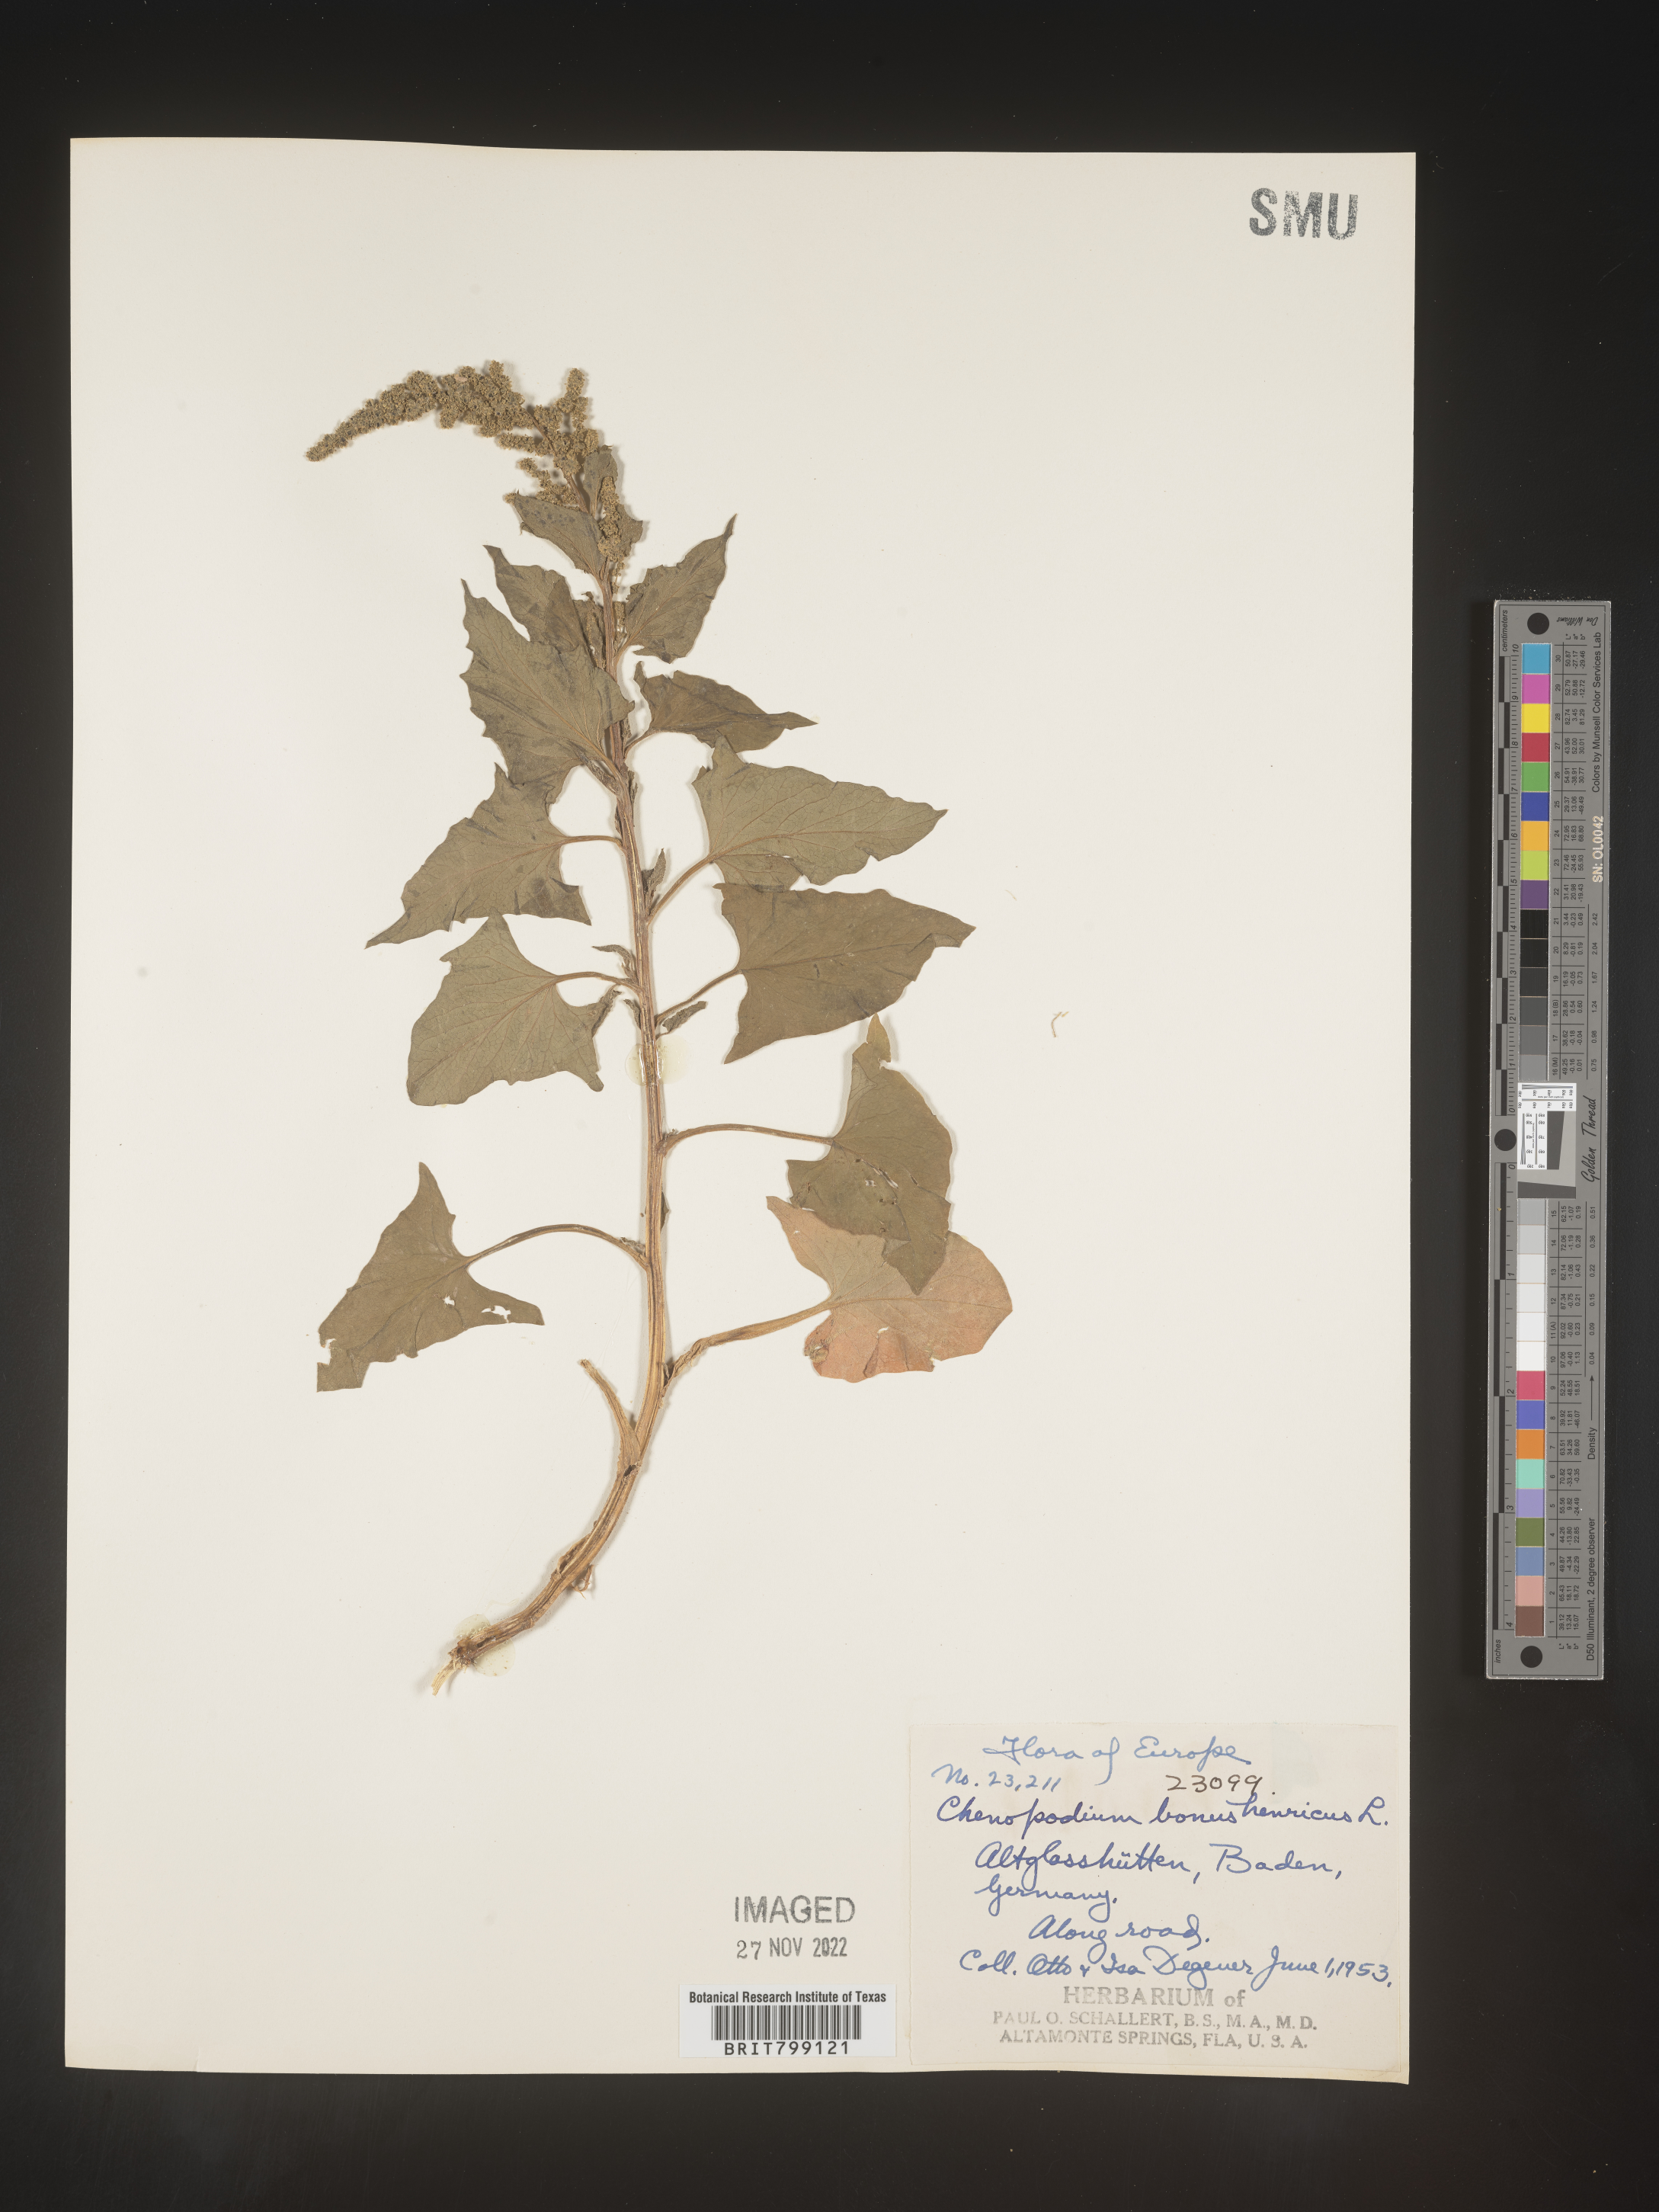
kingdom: Plantae
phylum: Tracheophyta
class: Magnoliopsida
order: Caryophyllales
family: Amaranthaceae
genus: Blitum
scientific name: Blitum bonus-henricus
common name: Good king henry
